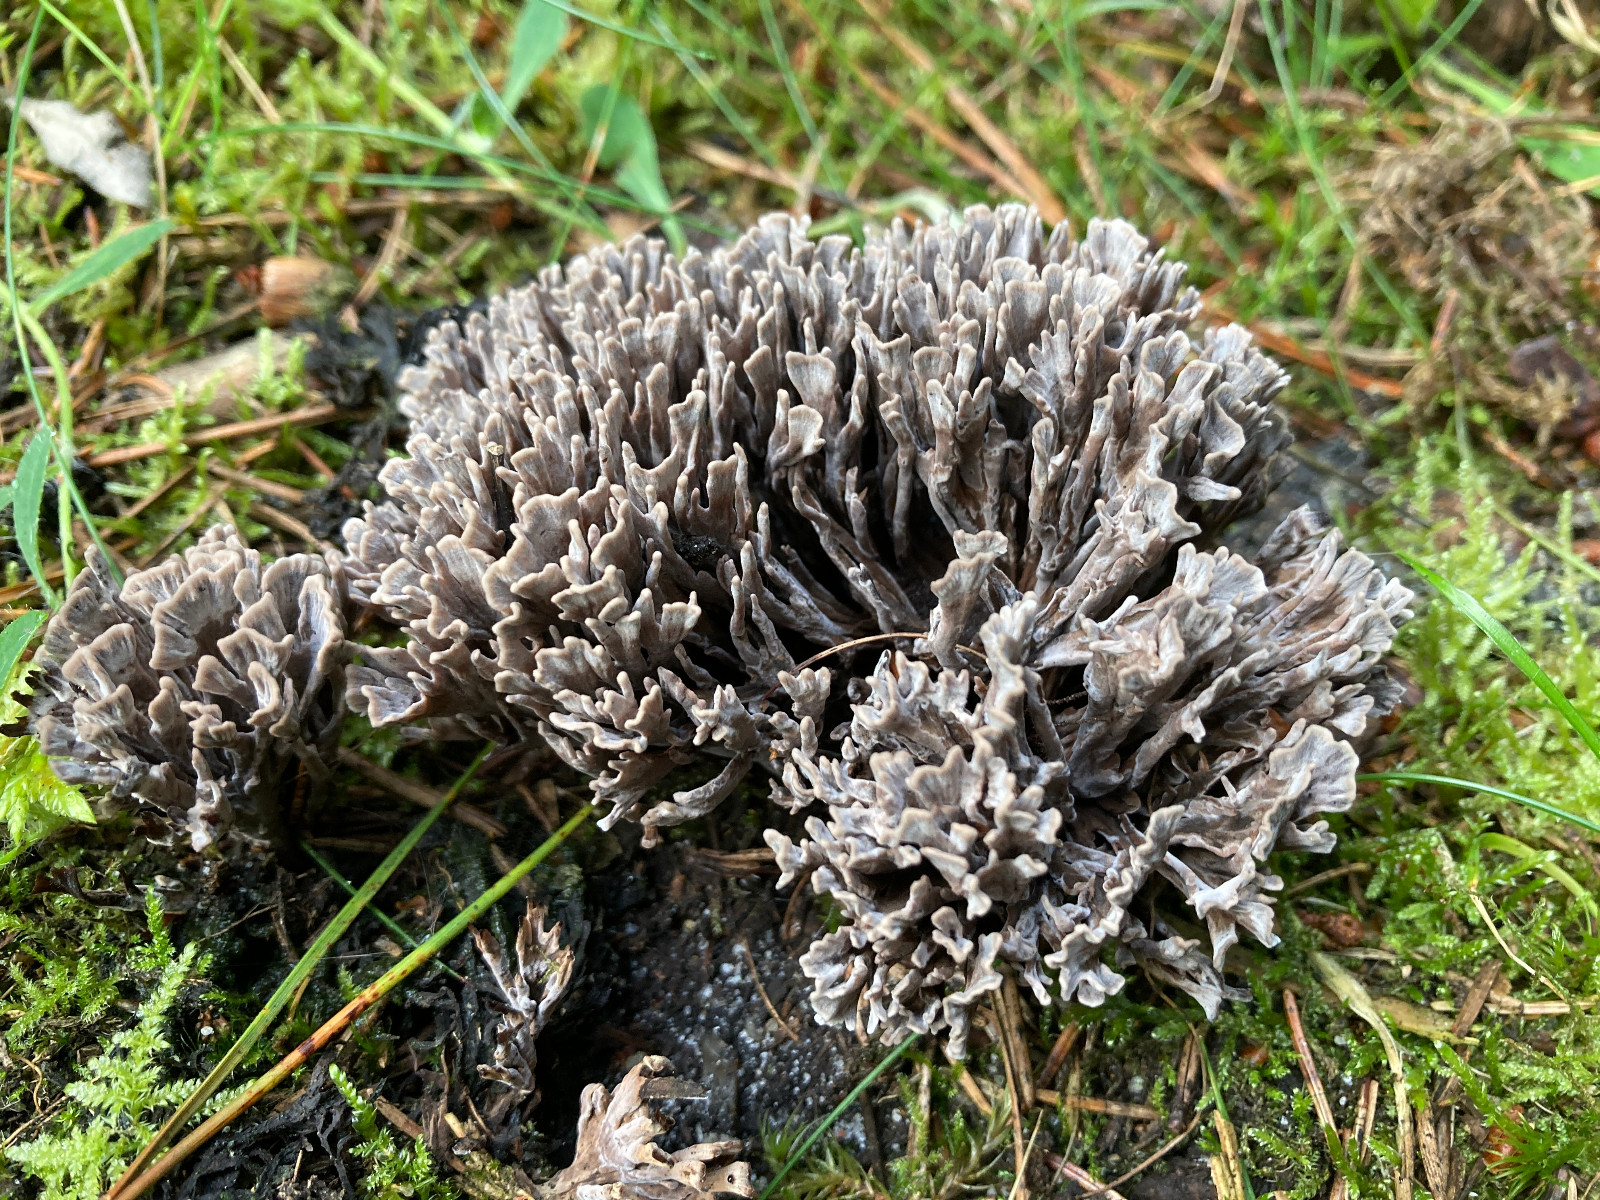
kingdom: Fungi
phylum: Basidiomycota
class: Agaricomycetes
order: Thelephorales
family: Thelephoraceae
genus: Thelephora
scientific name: Thelephora palmata
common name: grenet frynsesvamp
